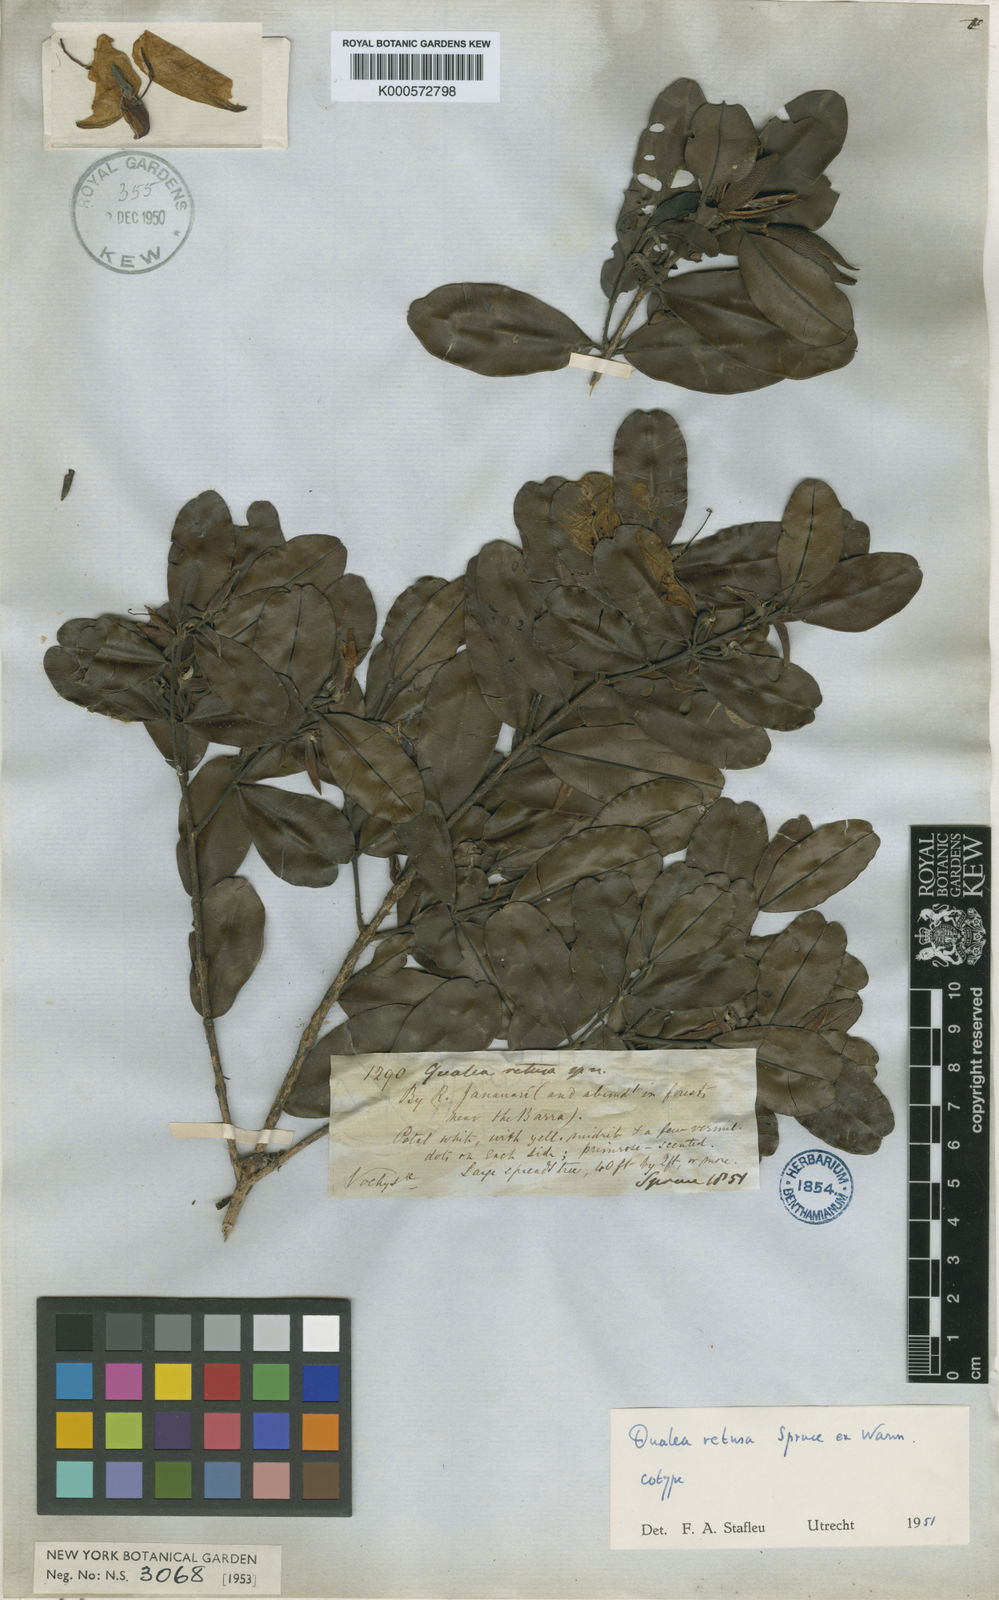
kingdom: Plantae
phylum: Tracheophyta
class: Magnoliopsida
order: Myrtales
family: Vochysiaceae
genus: Ruizterania
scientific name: Ruizterania retusa
